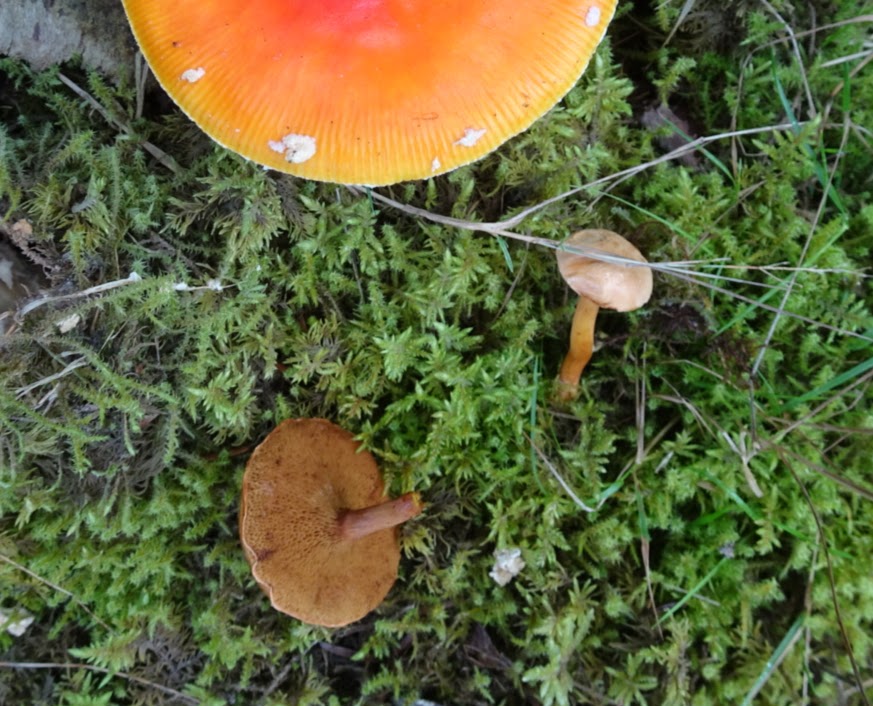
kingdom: Fungi
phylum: Basidiomycota
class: Agaricomycetes
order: Boletales
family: Boletaceae
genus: Chalciporus
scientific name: Chalciporus piperatus
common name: peberrørhat
